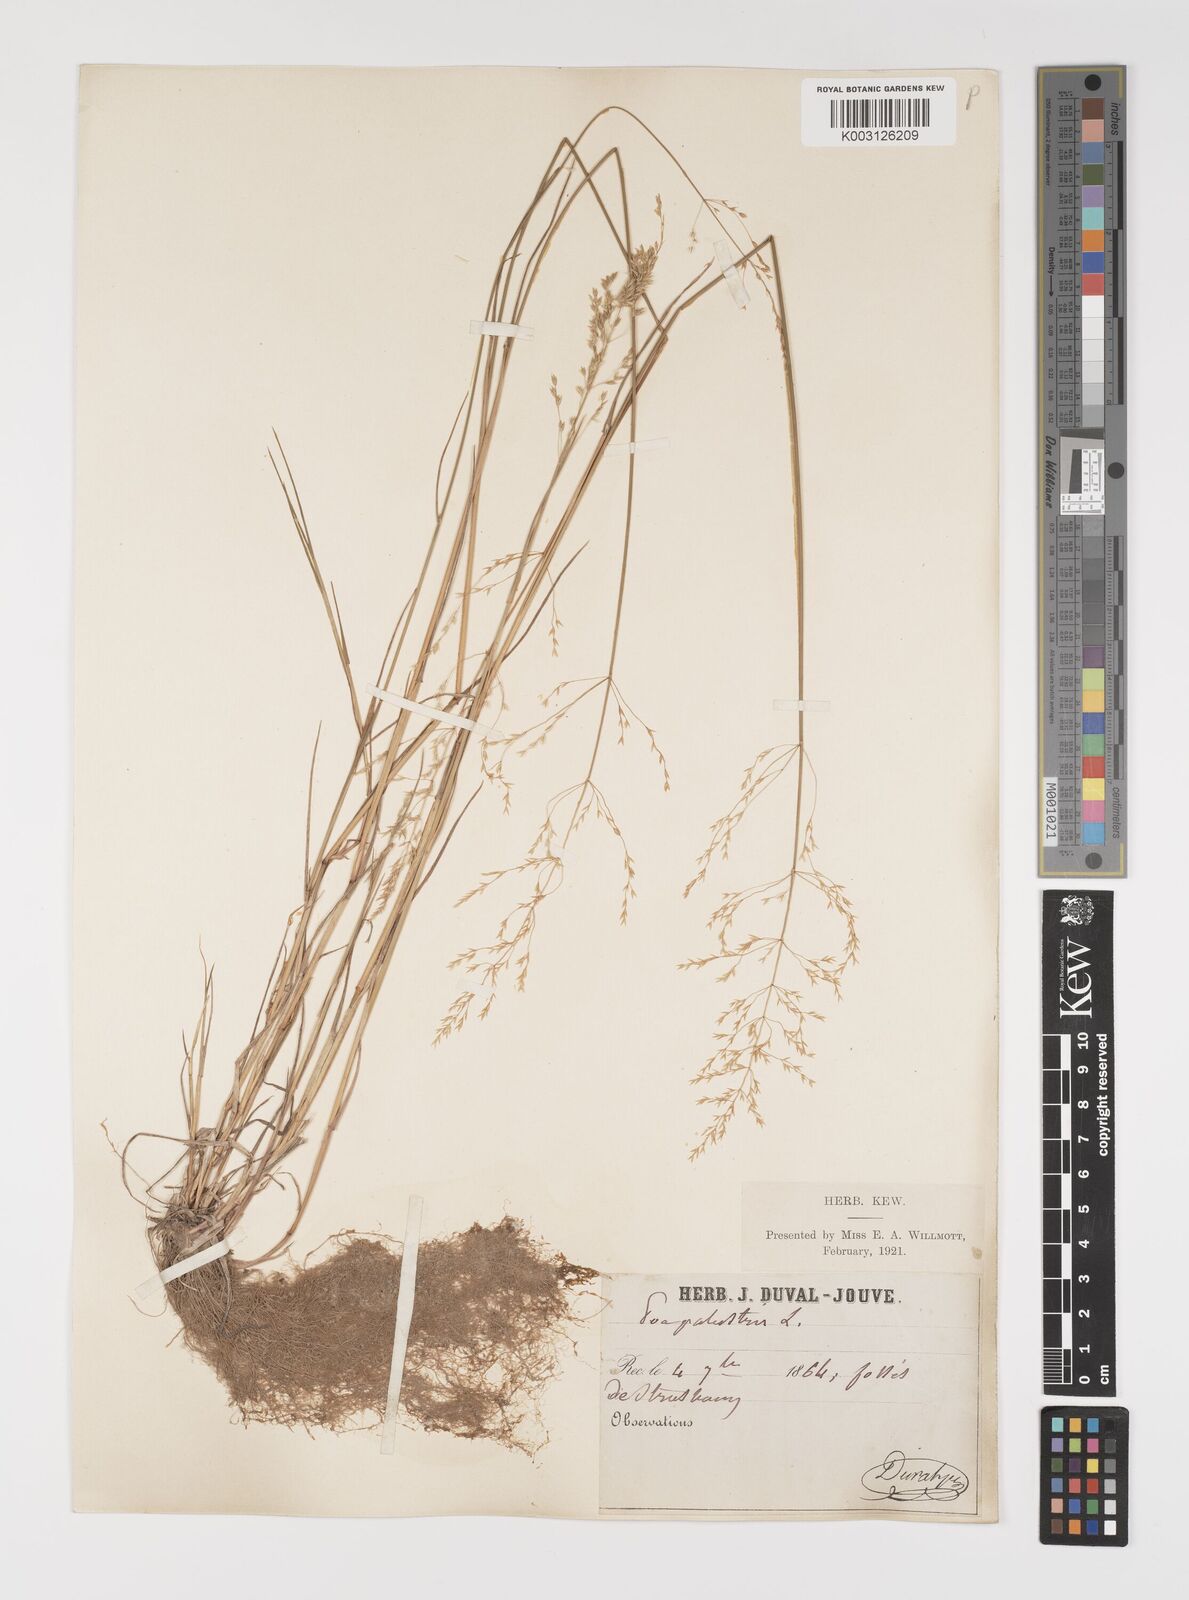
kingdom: Plantae
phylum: Tracheophyta
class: Liliopsida
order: Poales
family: Poaceae
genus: Poa
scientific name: Poa palustris
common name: Swamp meadow-grass
